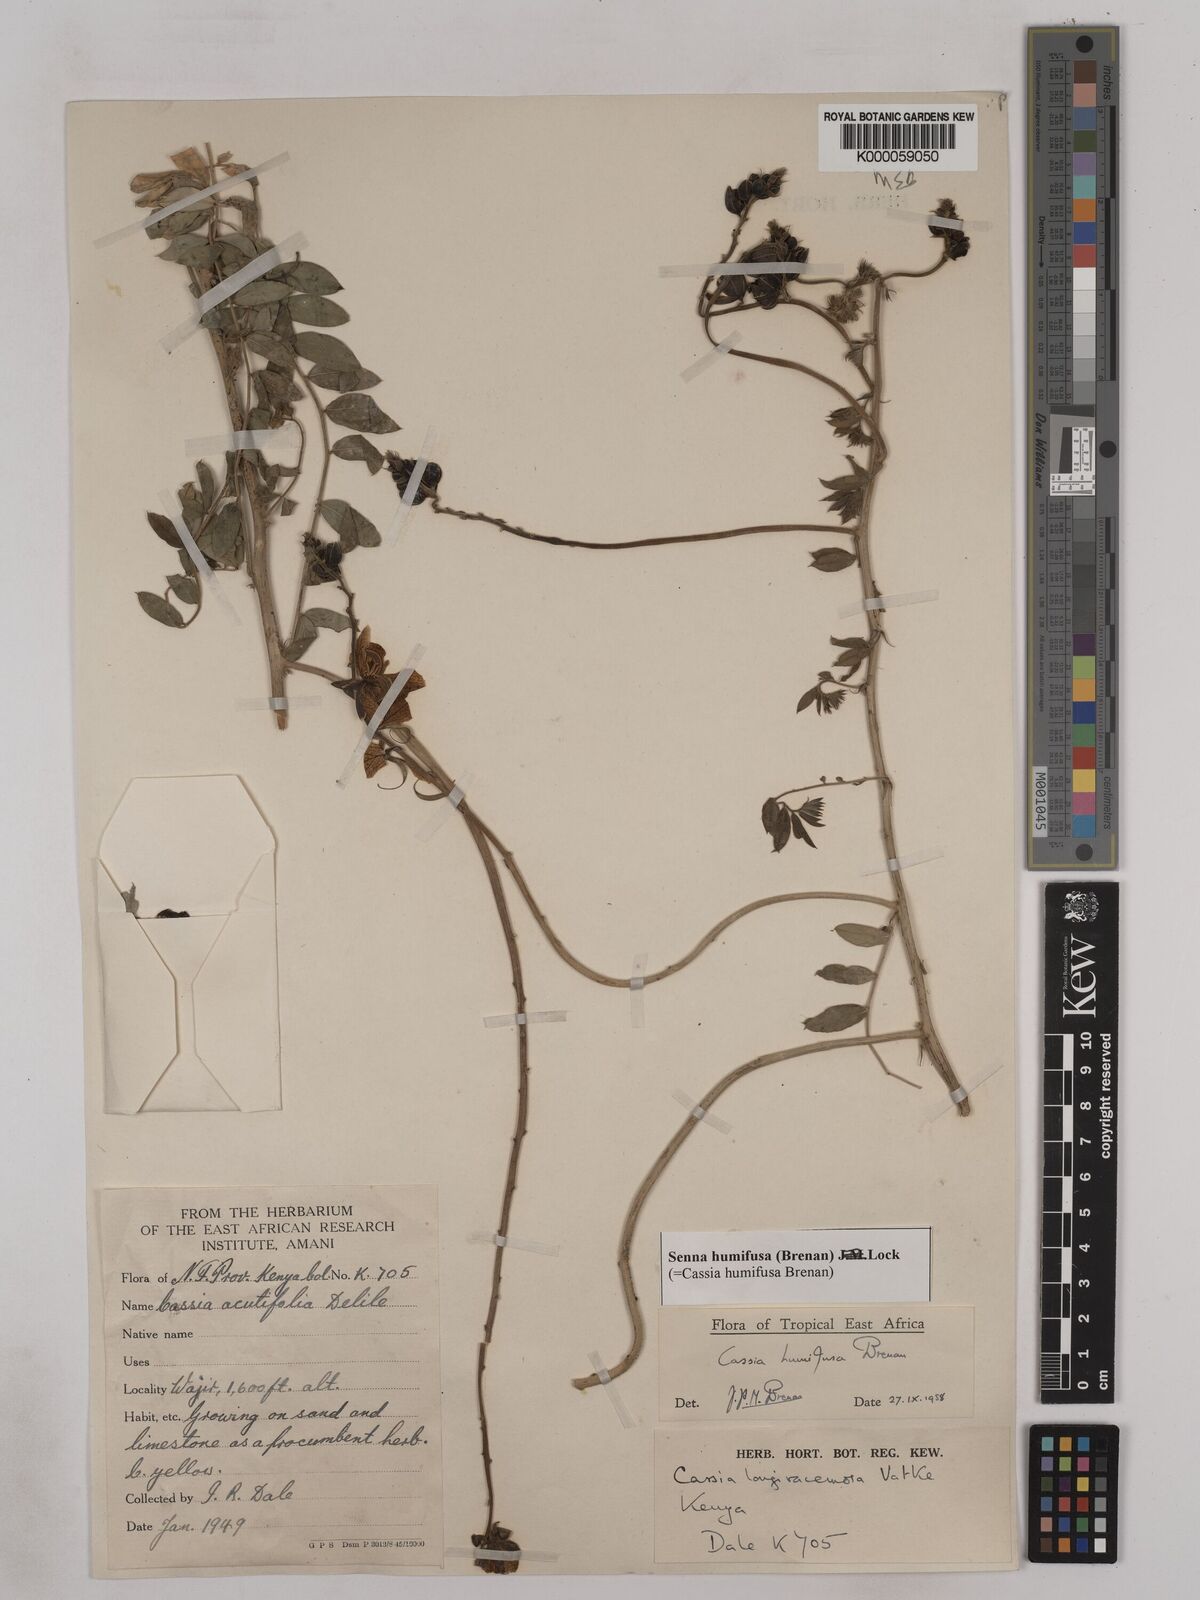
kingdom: Plantae
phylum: Tracheophyta
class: Magnoliopsida
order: Fabales
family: Fabaceae
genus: Senna
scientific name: Senna humifusa
